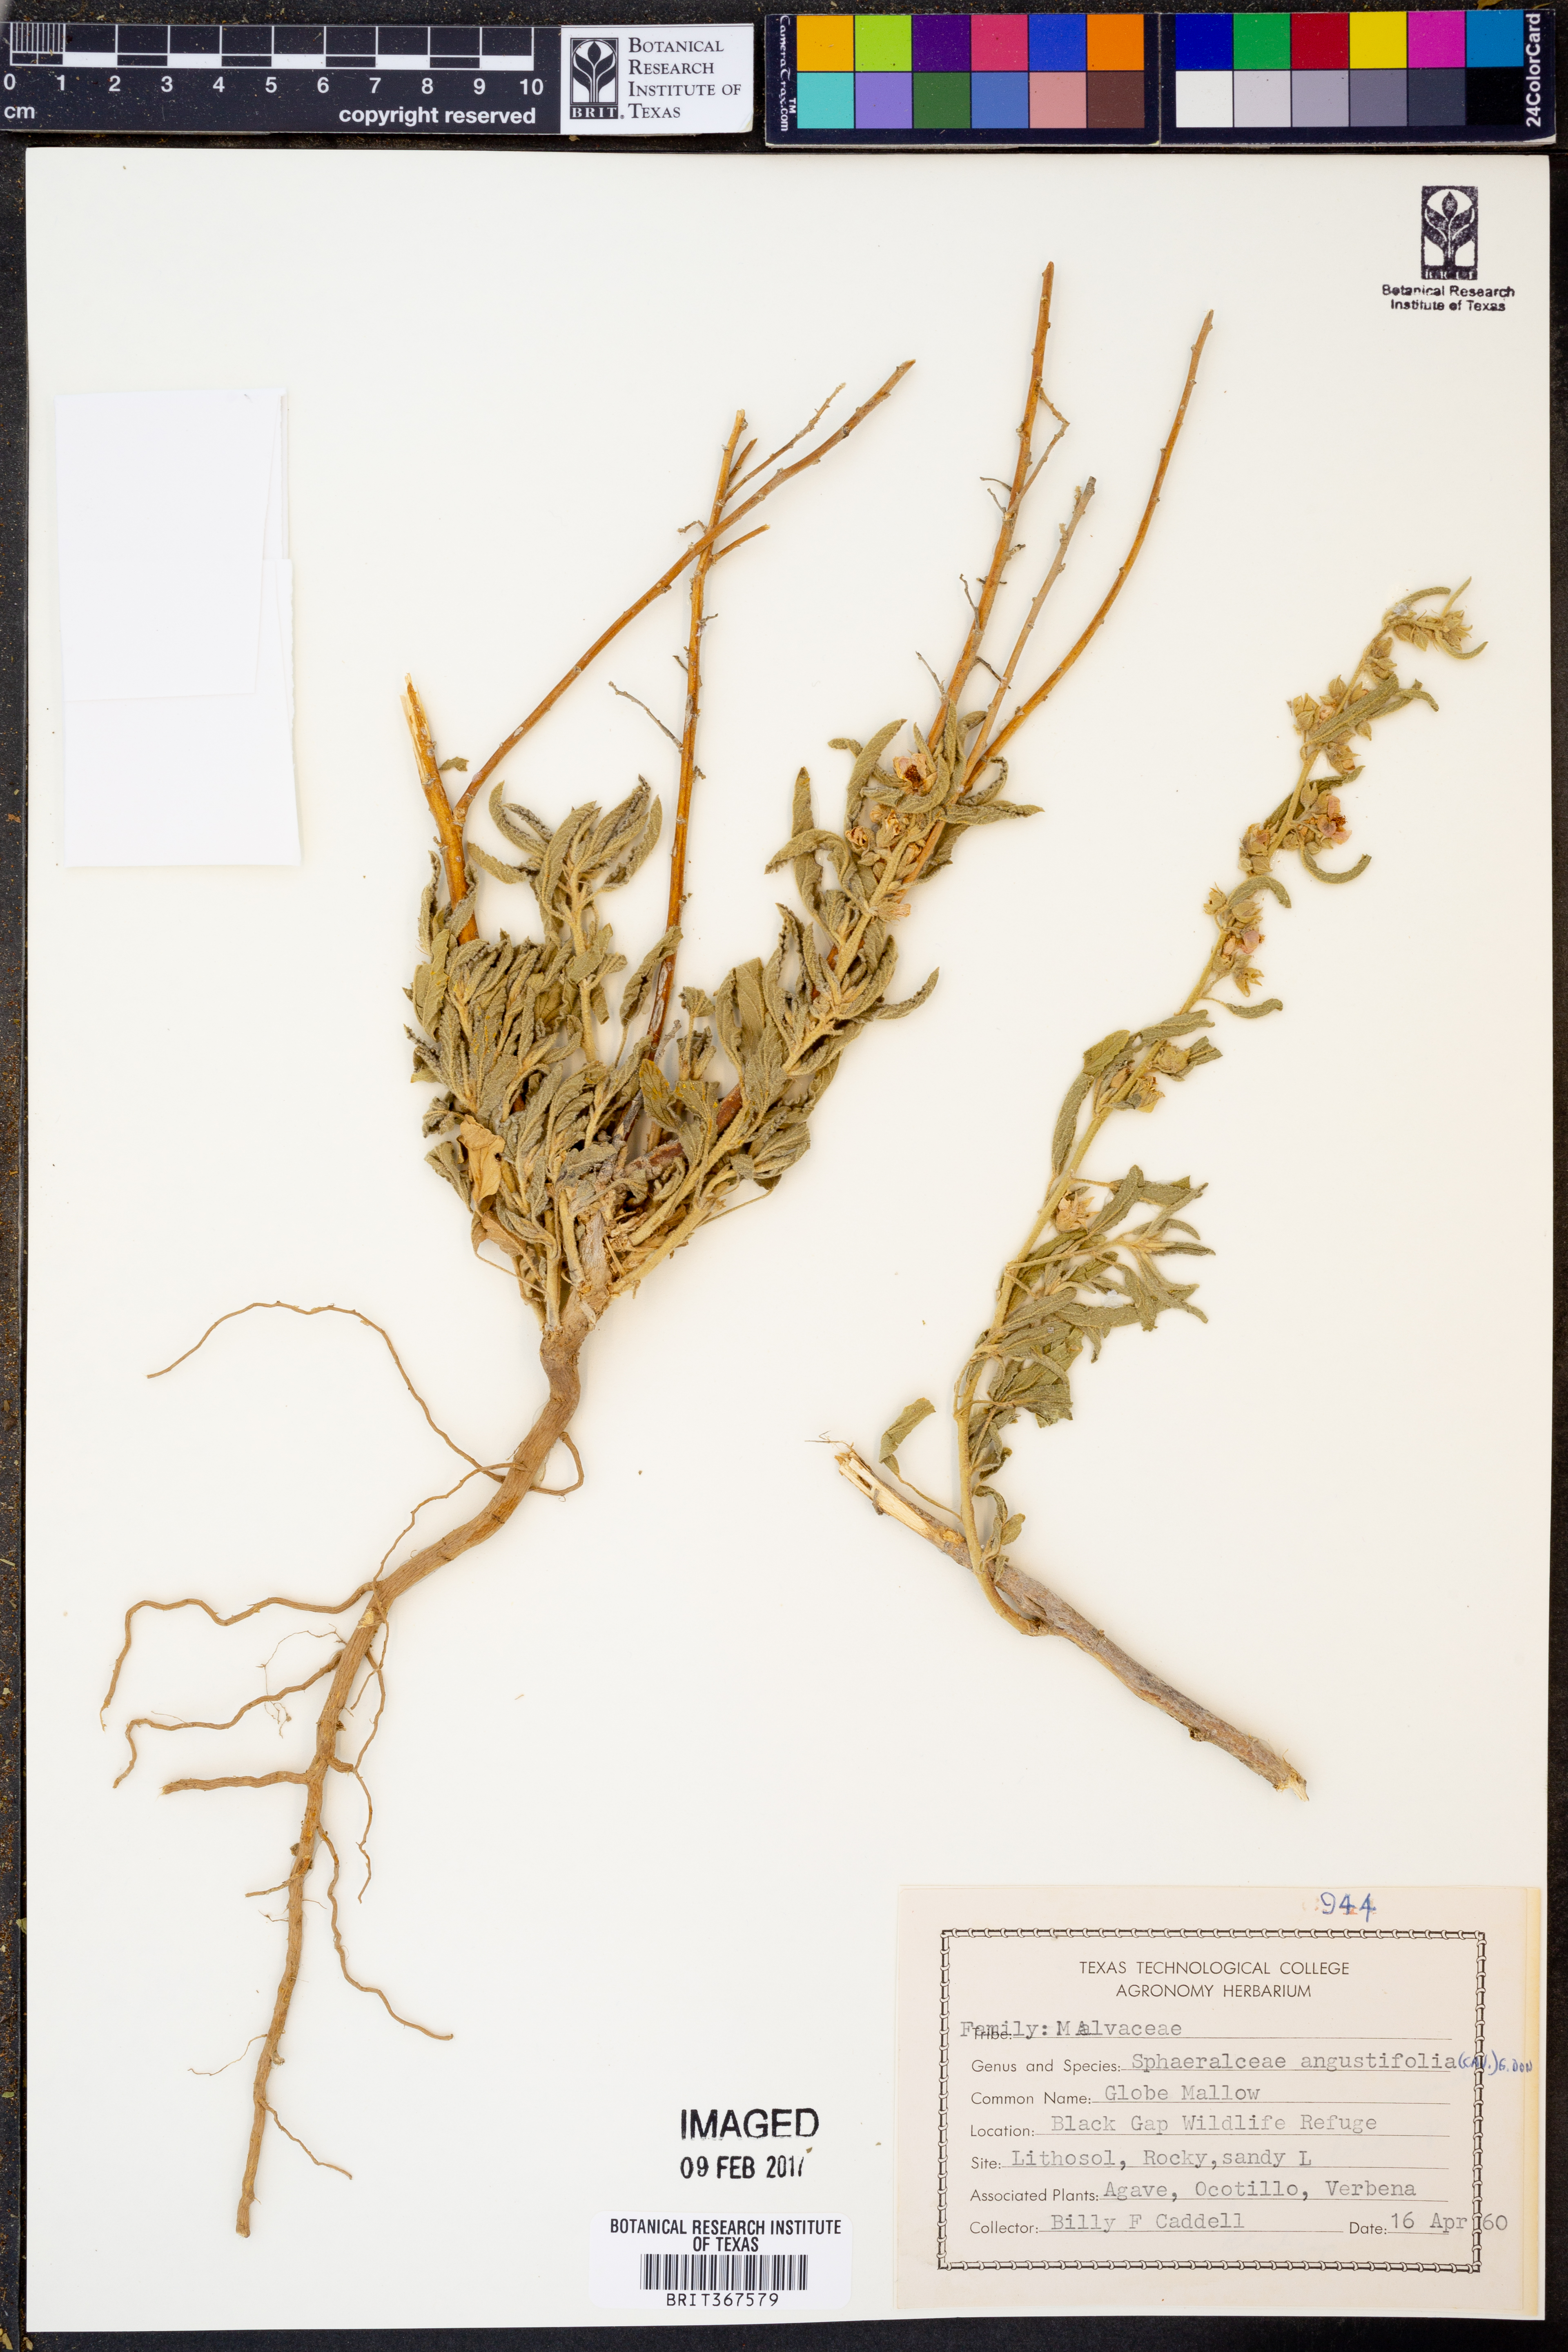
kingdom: Plantae
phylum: Tracheophyta
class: Magnoliopsida
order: Malvales
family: Malvaceae
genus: Sphaeralcea
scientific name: Sphaeralcea angustifolia
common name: Copper globe-mallow
